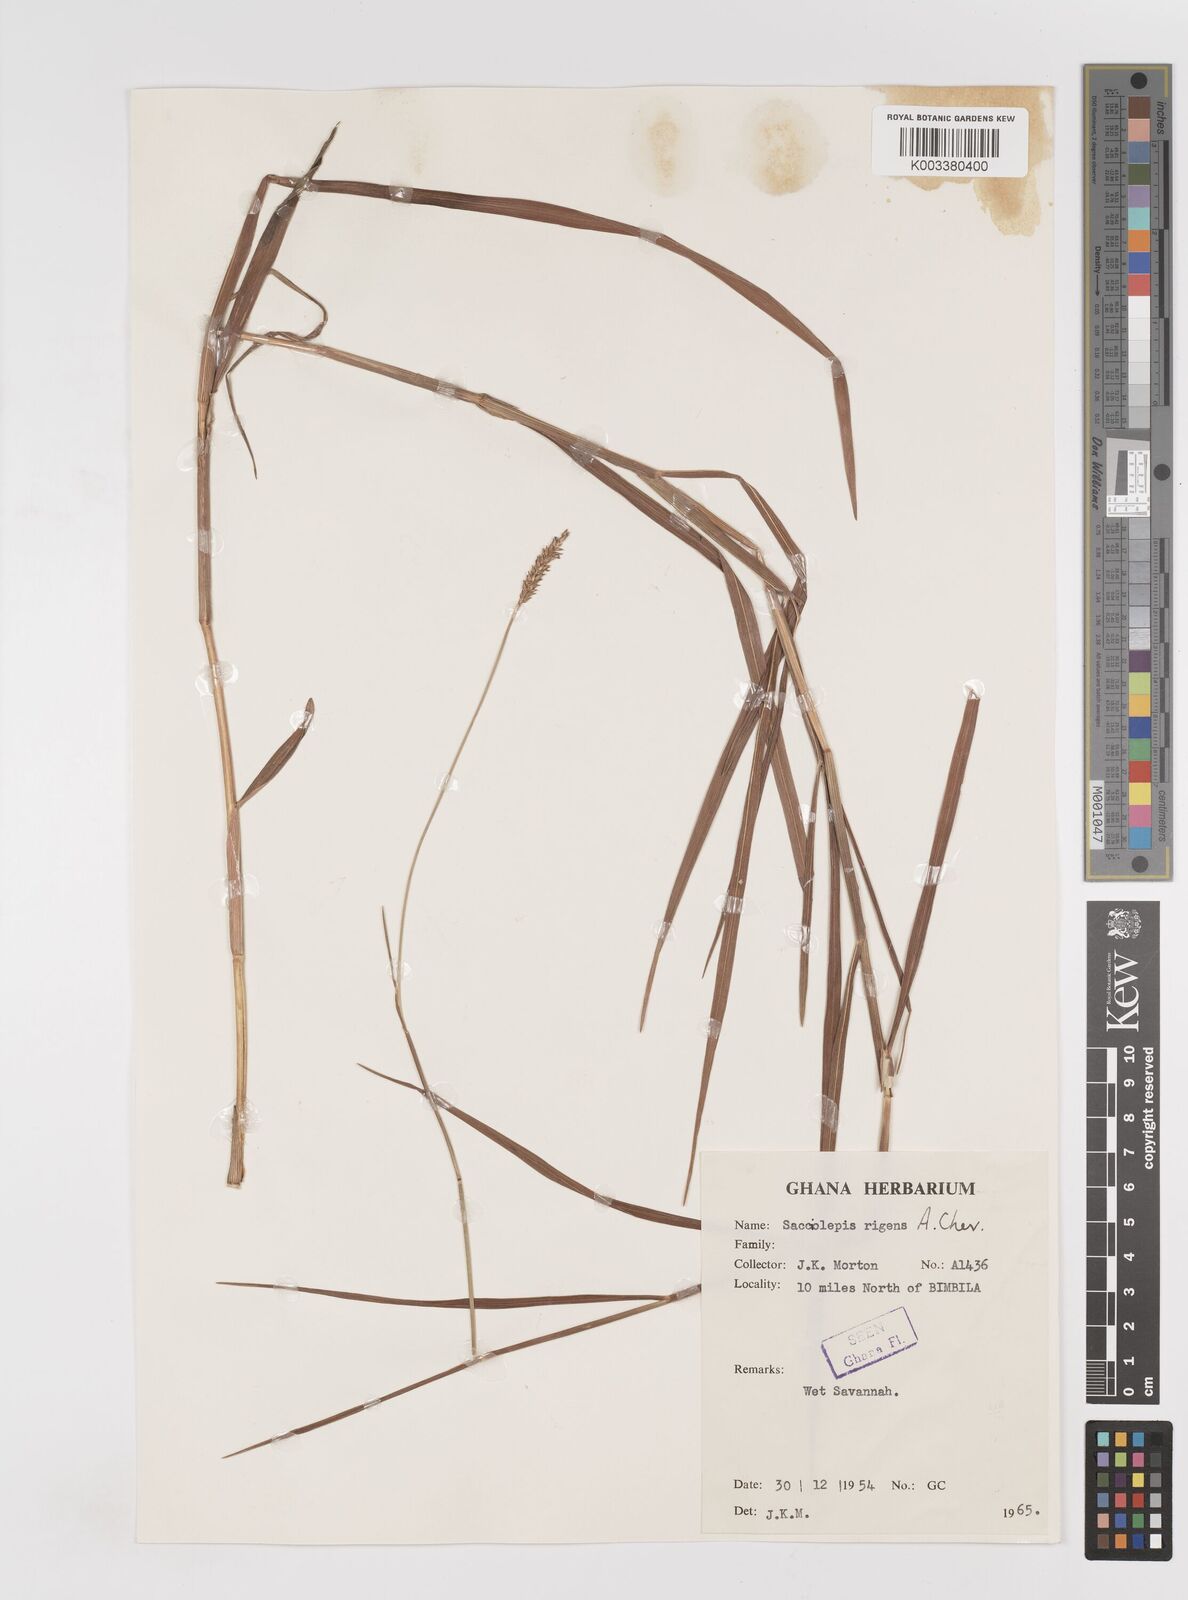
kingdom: Plantae
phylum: Tracheophyta
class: Liliopsida
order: Poales
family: Poaceae
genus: Sacciolepis
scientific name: Sacciolepis leptorrhachis
